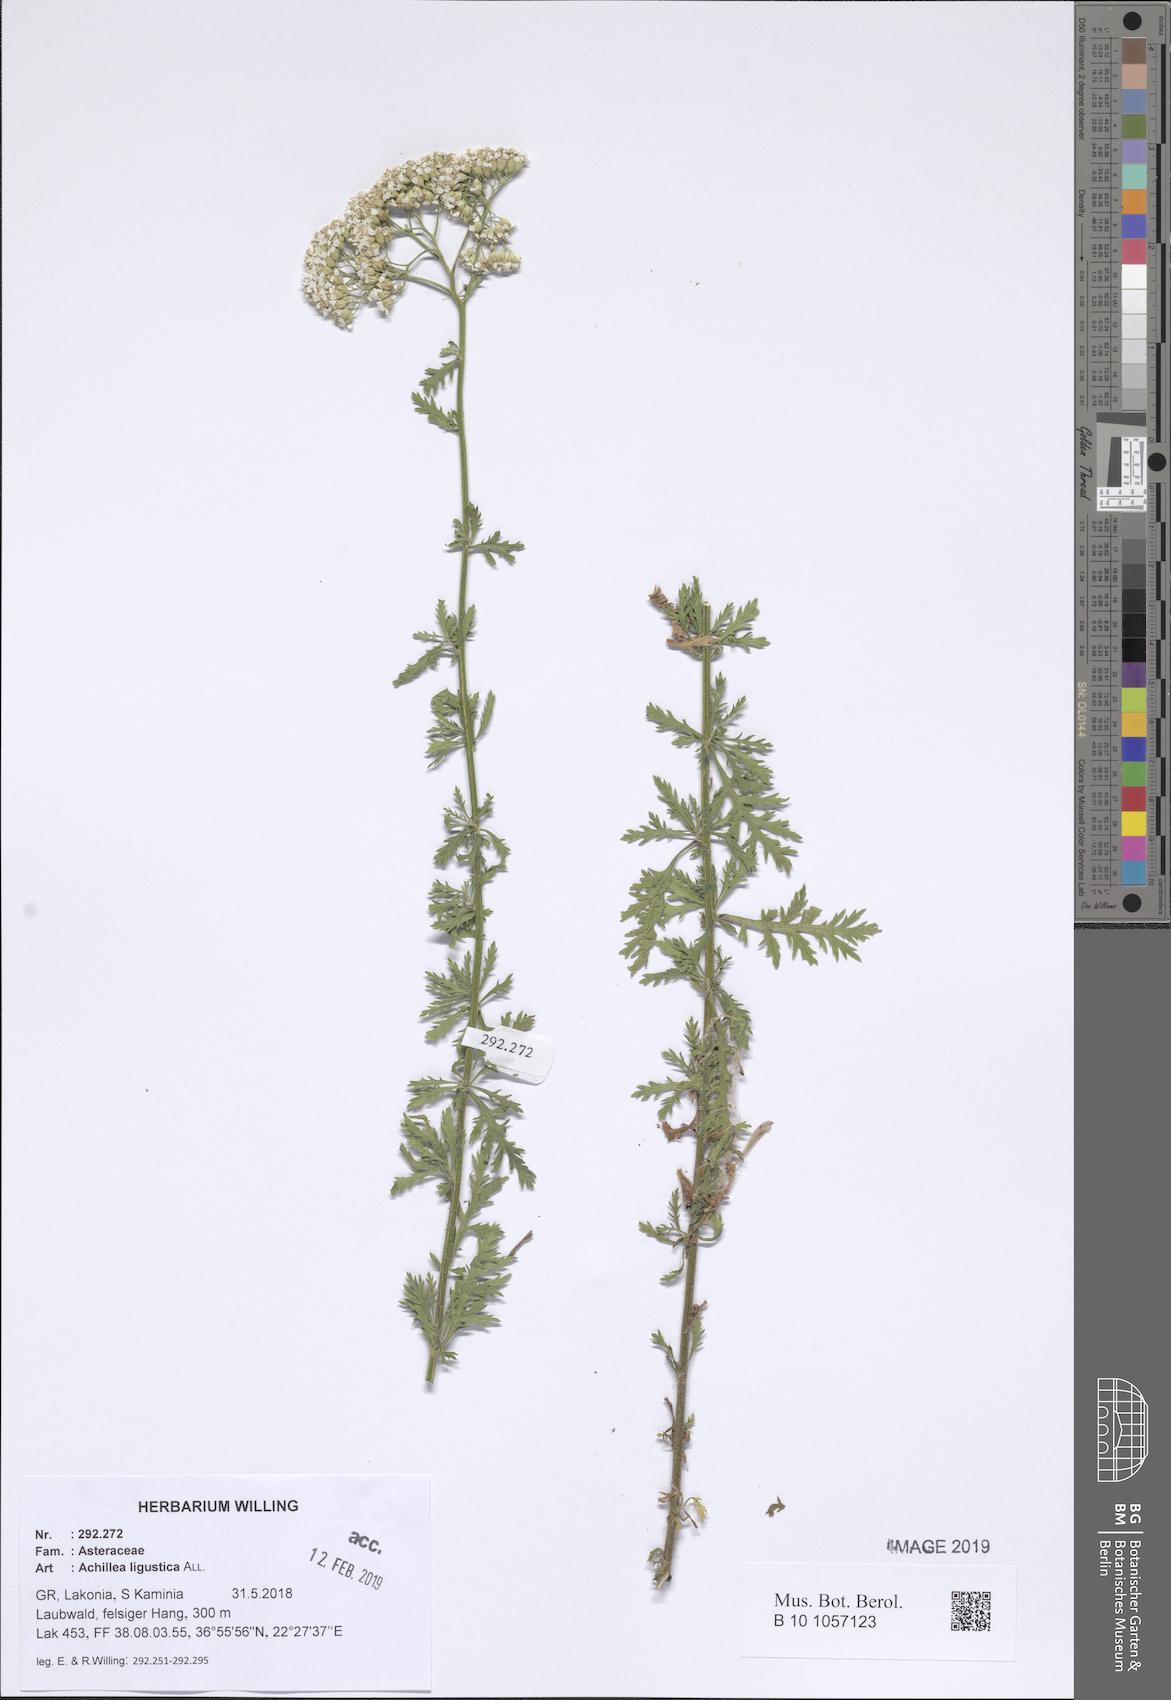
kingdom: Plantae
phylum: Tracheophyta
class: Magnoliopsida
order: Asterales
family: Asteraceae
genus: Achillea
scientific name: Achillea ligustica
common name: Southern yarrow
